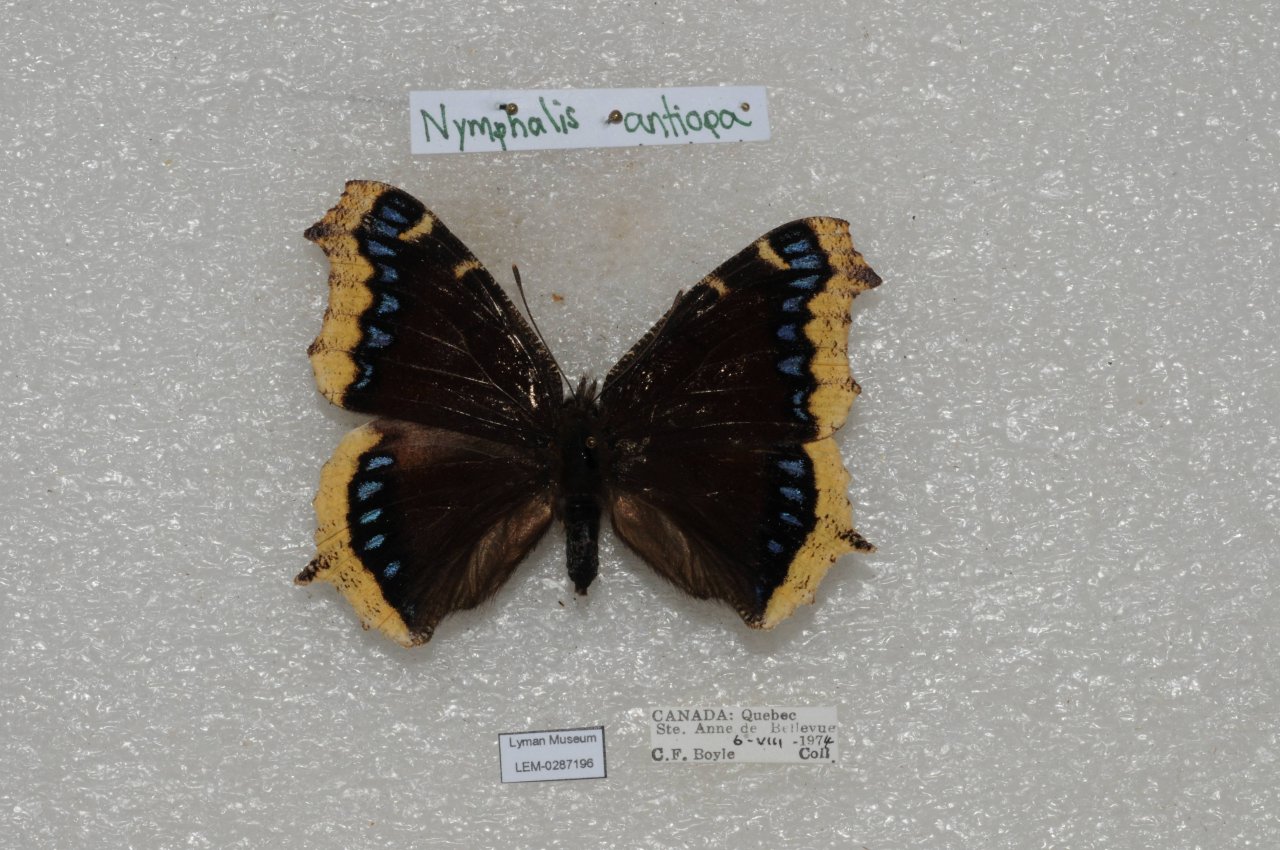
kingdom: Animalia
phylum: Arthropoda
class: Insecta
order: Lepidoptera
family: Nymphalidae
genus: Nymphalis
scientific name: Nymphalis antiopa
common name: Mourning Cloak
